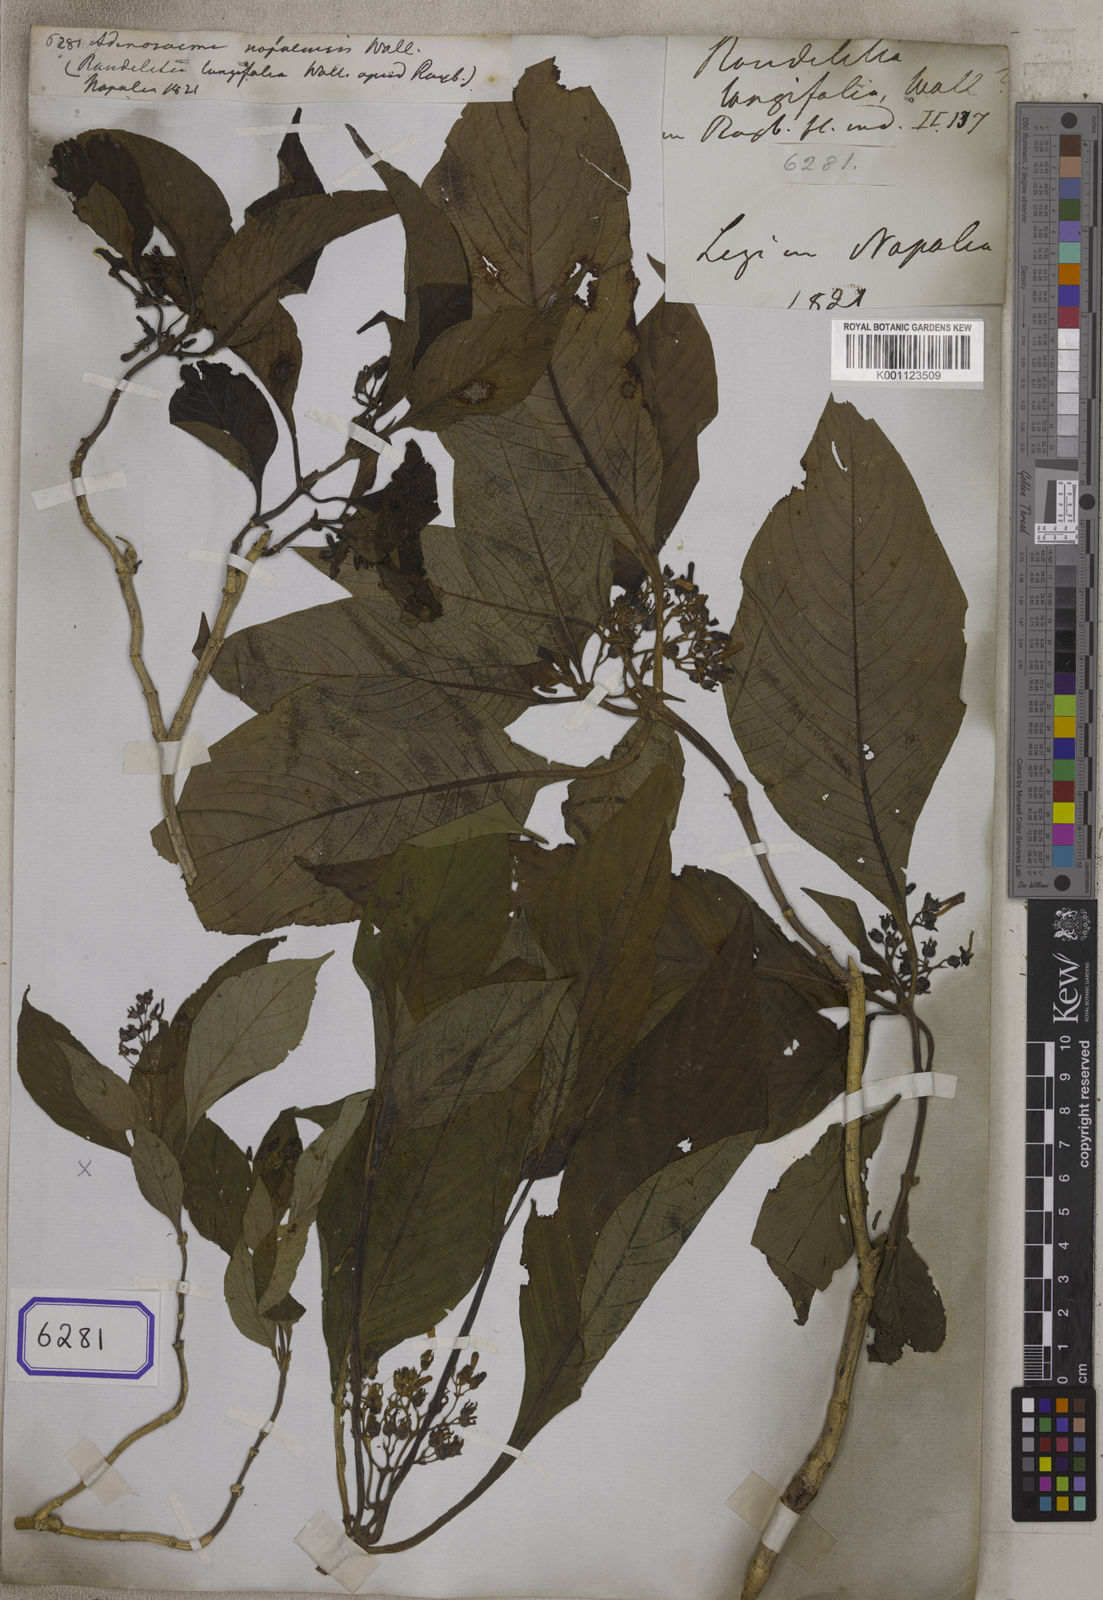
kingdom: Plantae
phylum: Tracheophyta
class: Magnoliopsida
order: Gentianales
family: Rubiaceae
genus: Adenosacme
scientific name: Adenosacme
